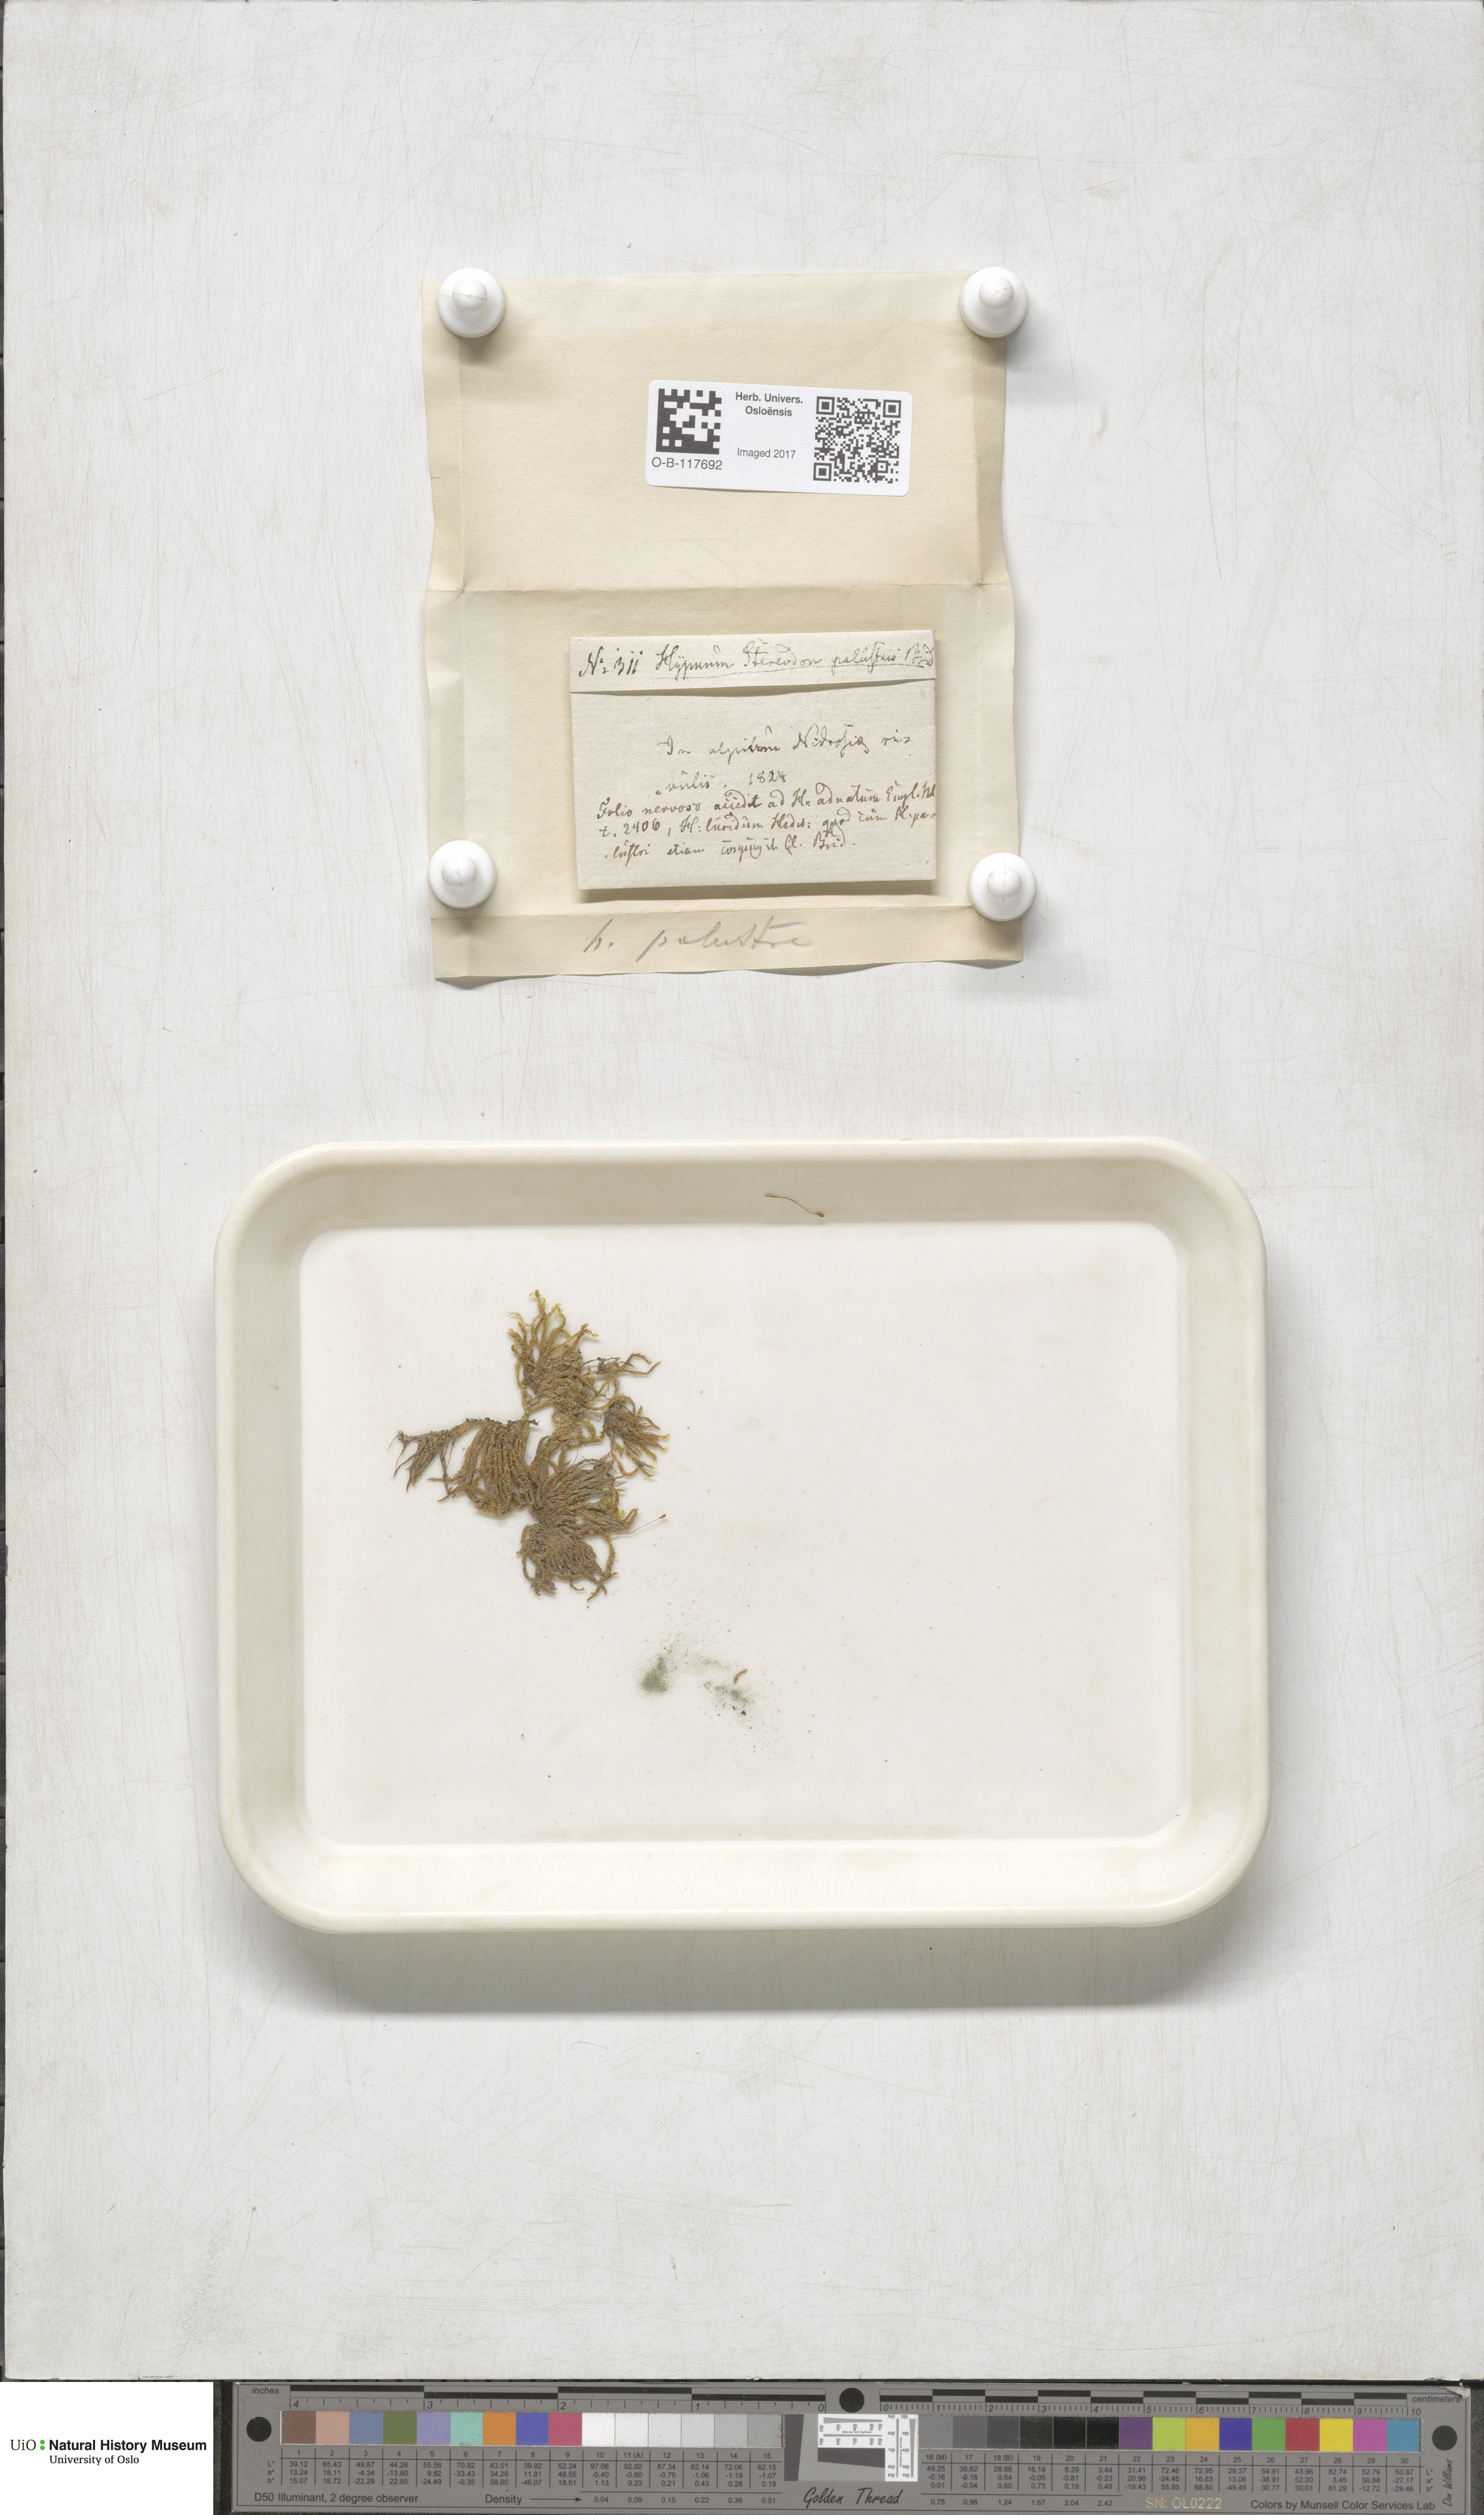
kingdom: Plantae
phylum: Bryophyta
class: Bryopsida
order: Hypnales
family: Amblystegiaceae
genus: Hygrohypnum
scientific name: Hygrohypnum luridum
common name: Drab brook moss
